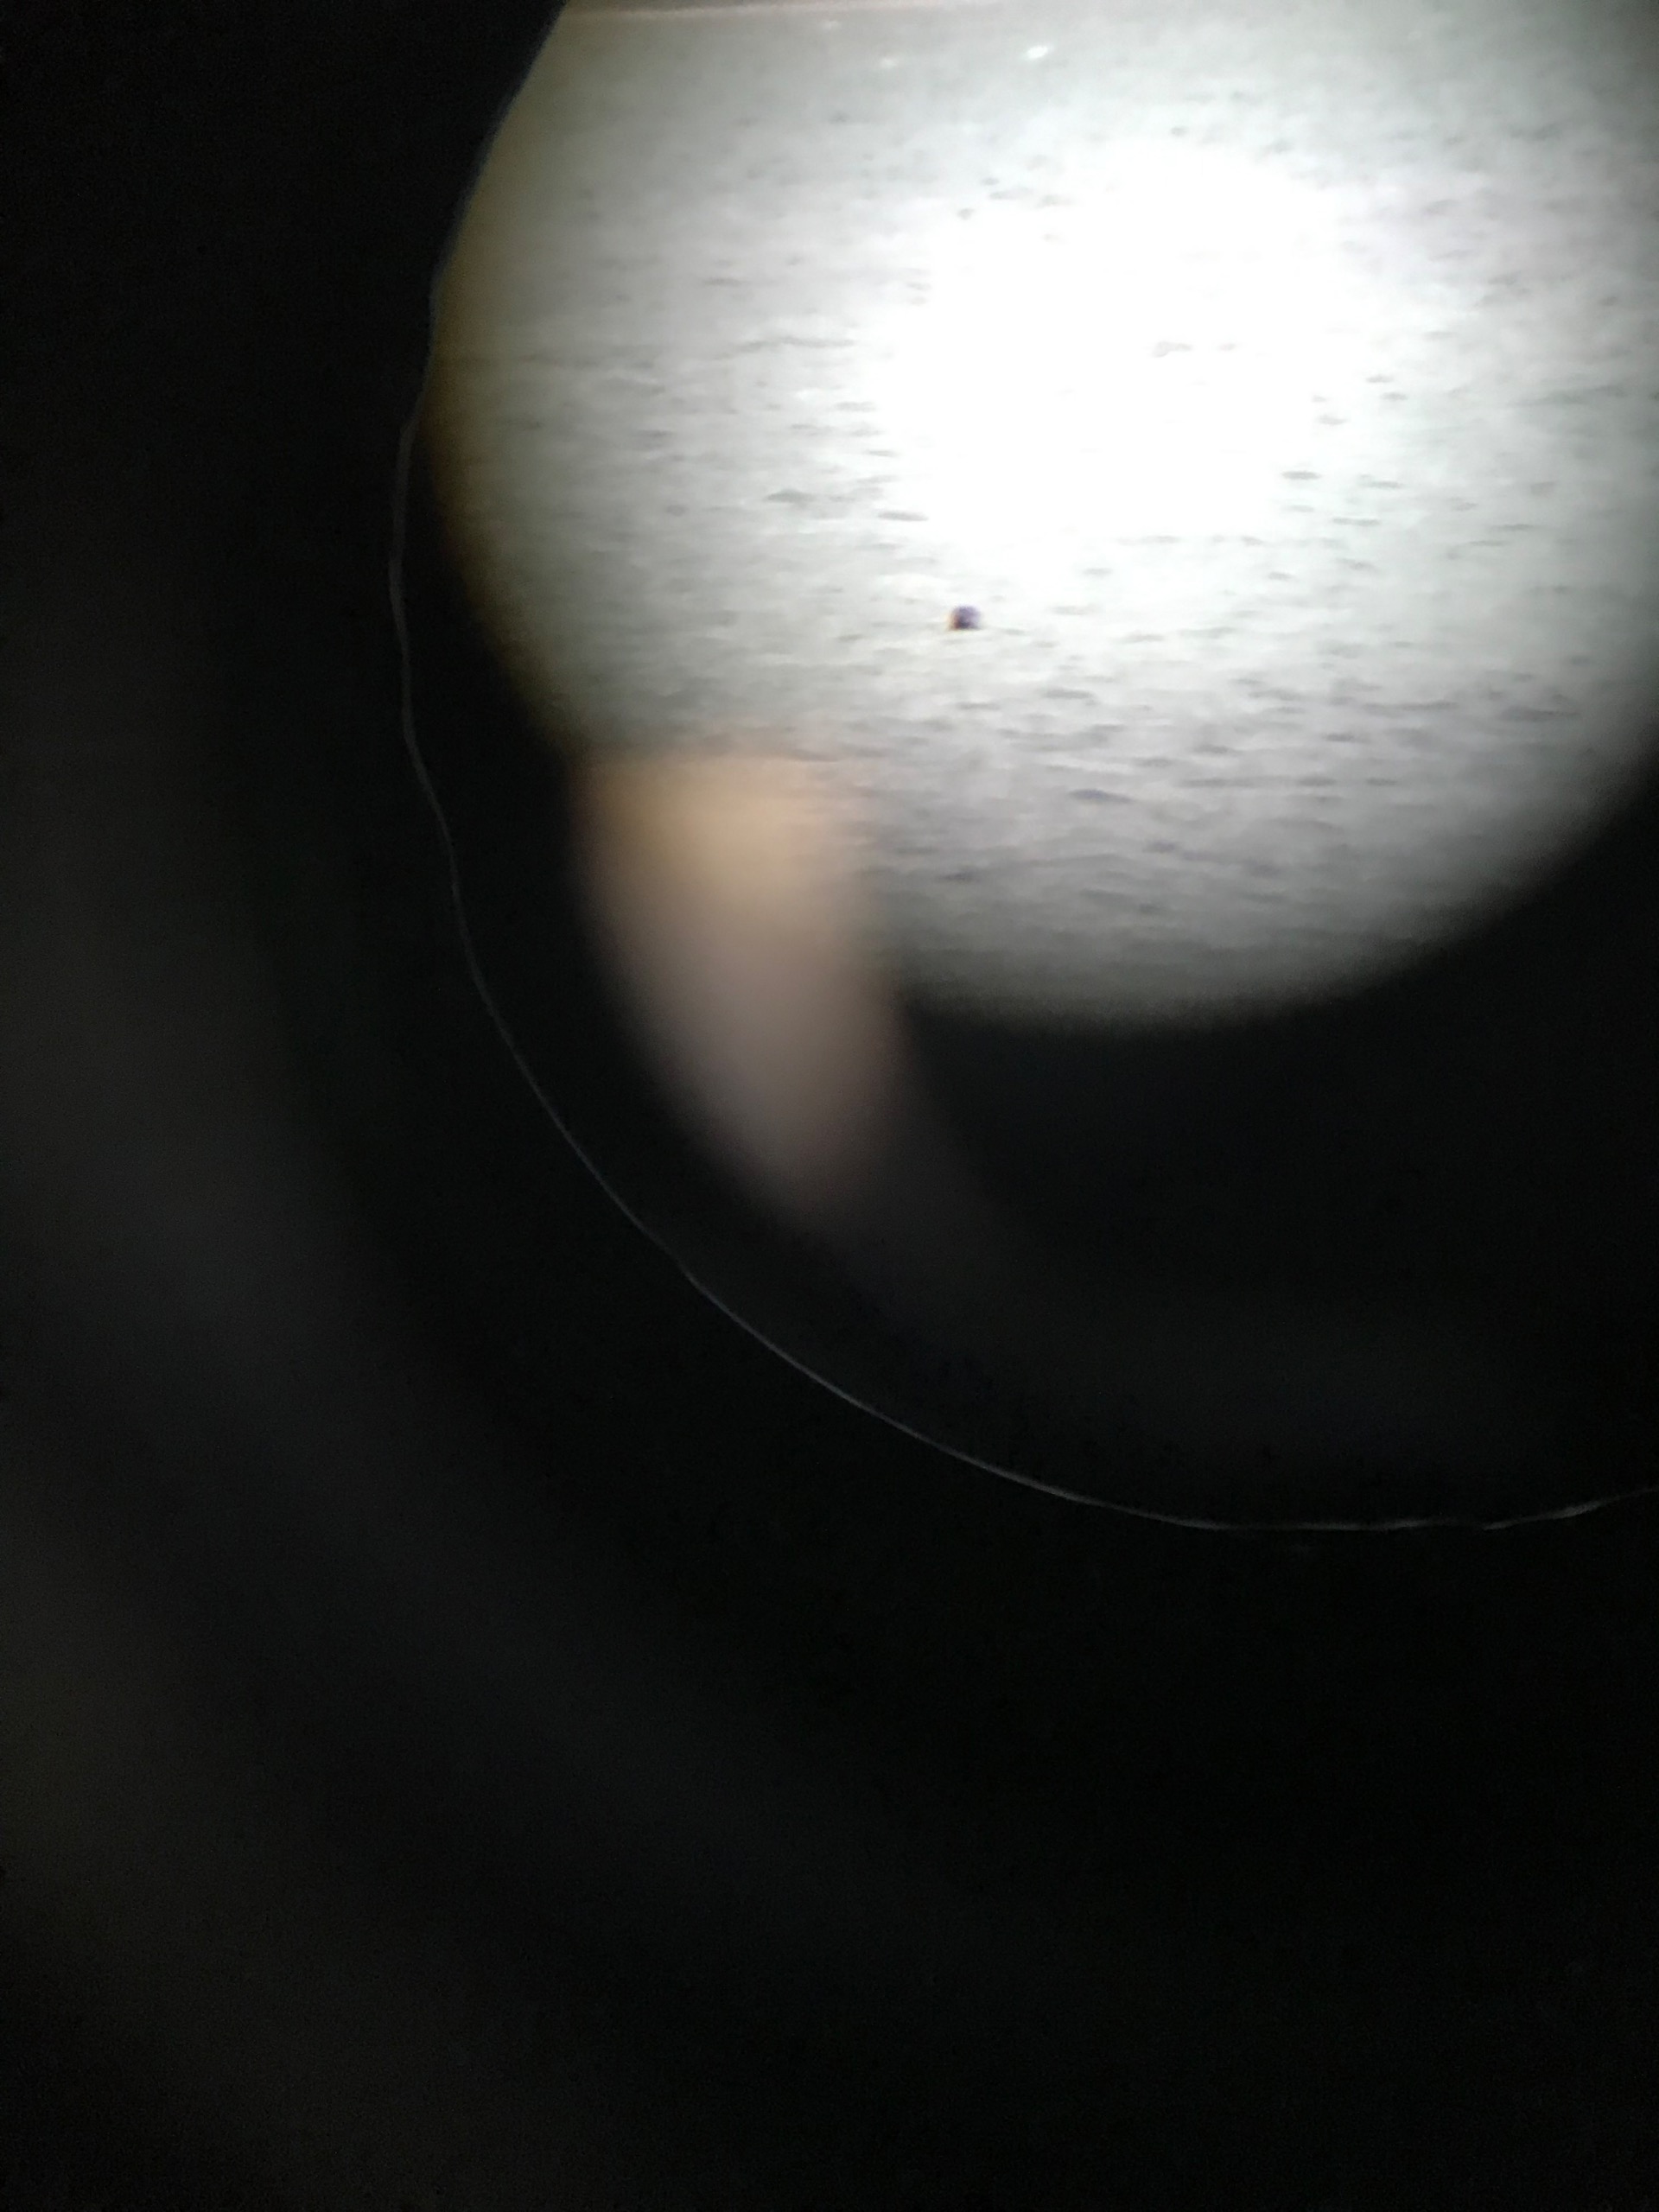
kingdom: Animalia
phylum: Chordata
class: Mammalia
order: Carnivora
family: Phocidae
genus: Phoca
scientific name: Phoca vitulina
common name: Spættet sæl
